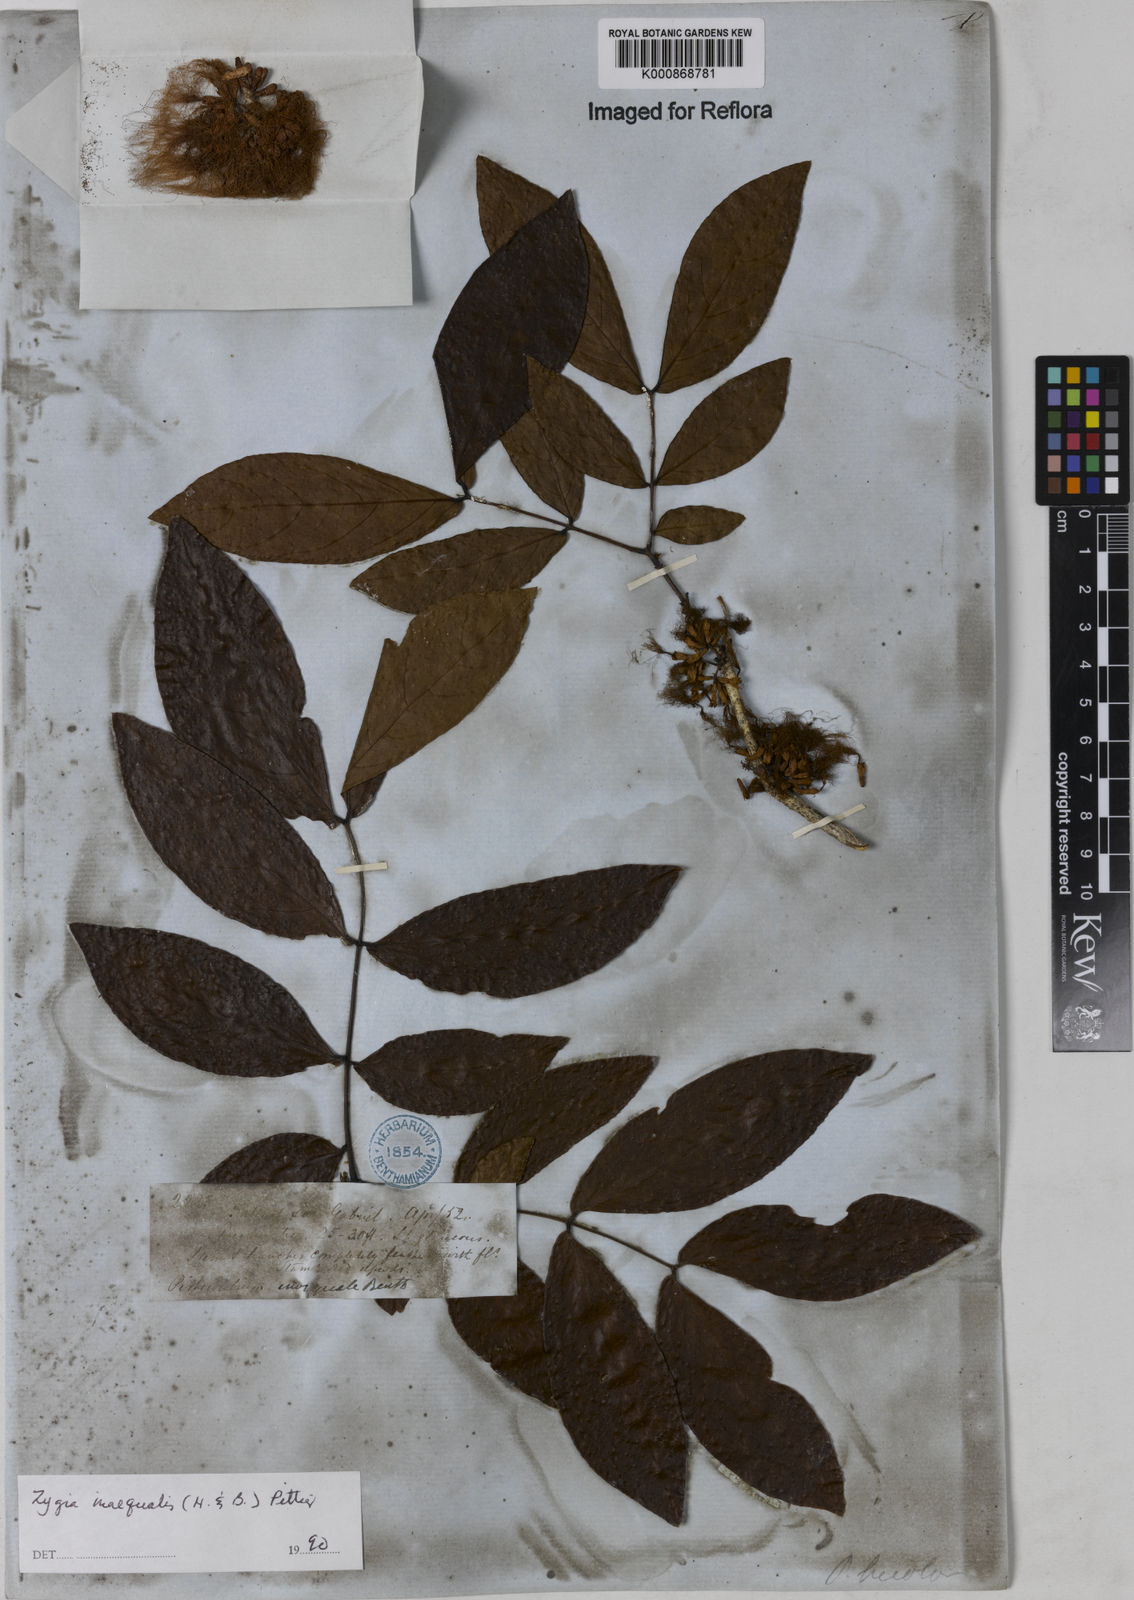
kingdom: Plantae
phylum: Tracheophyta
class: Magnoliopsida
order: Fabales
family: Fabaceae
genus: Zygia
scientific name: Zygia inaequalis
